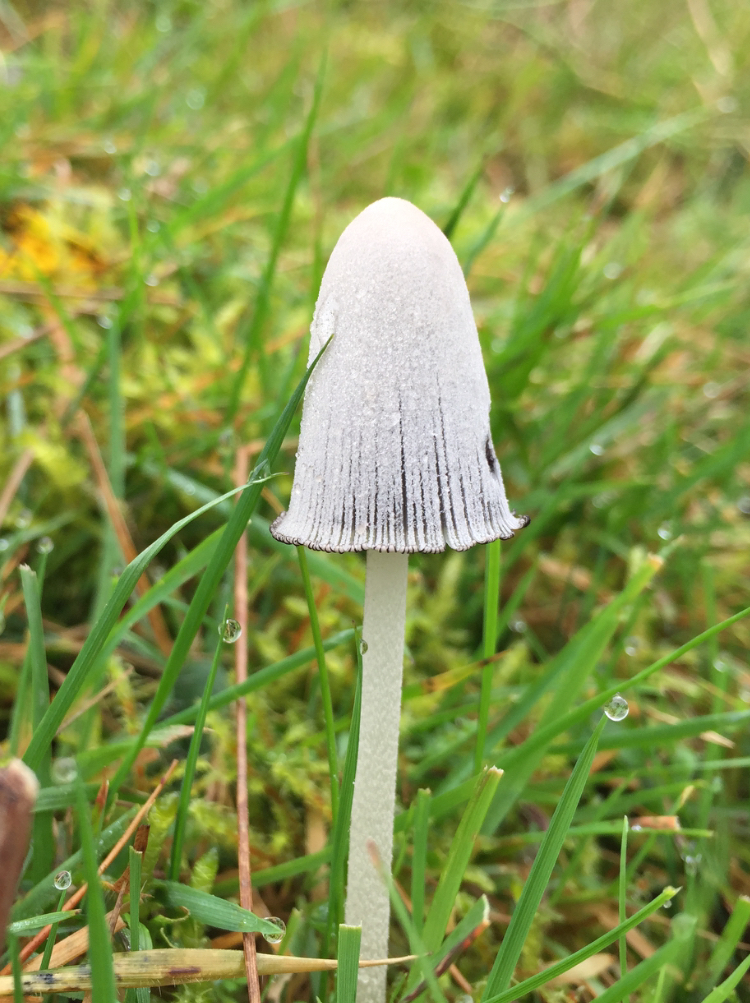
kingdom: Fungi
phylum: Basidiomycota
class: Agaricomycetes
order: Agaricales
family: Psathyrellaceae
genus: Coprinopsis
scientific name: Coprinopsis
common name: blækhat
